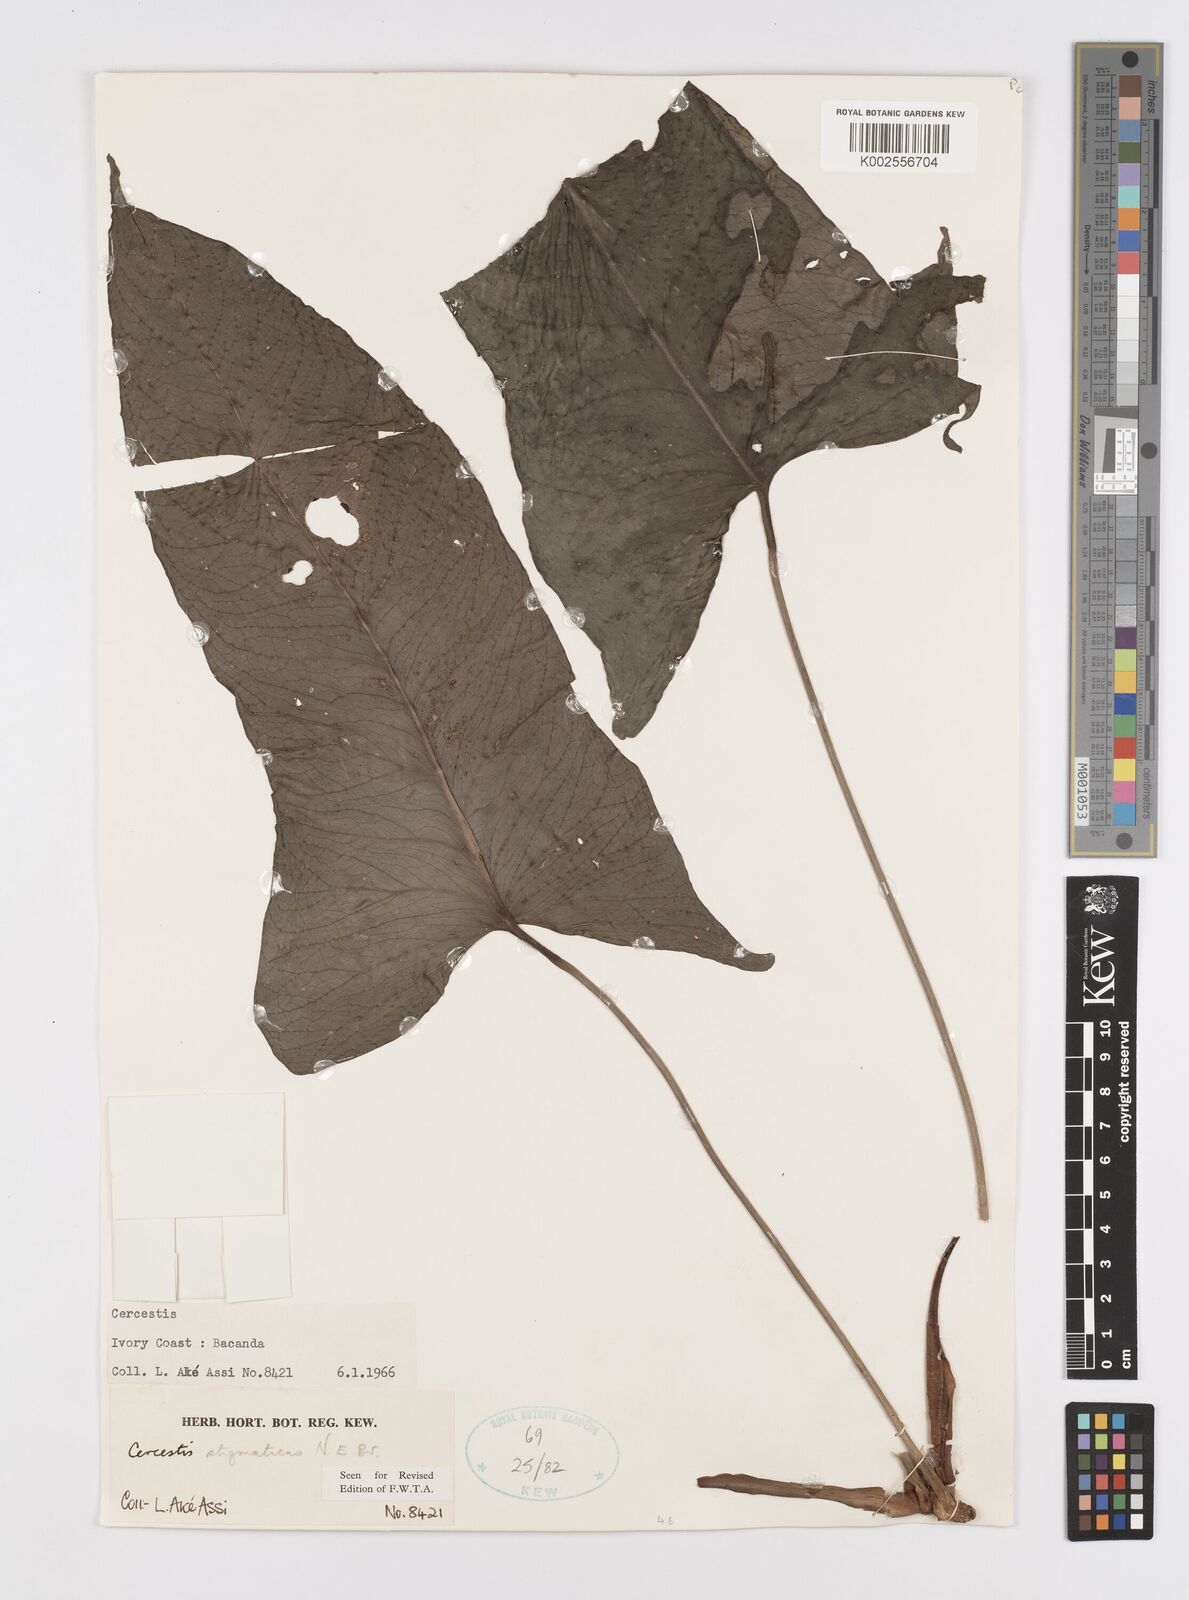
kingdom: Plantae
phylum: Tracheophyta
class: Liliopsida
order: Alismatales
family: Araceae
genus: Cercestis
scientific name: Cercestis dinklagei
